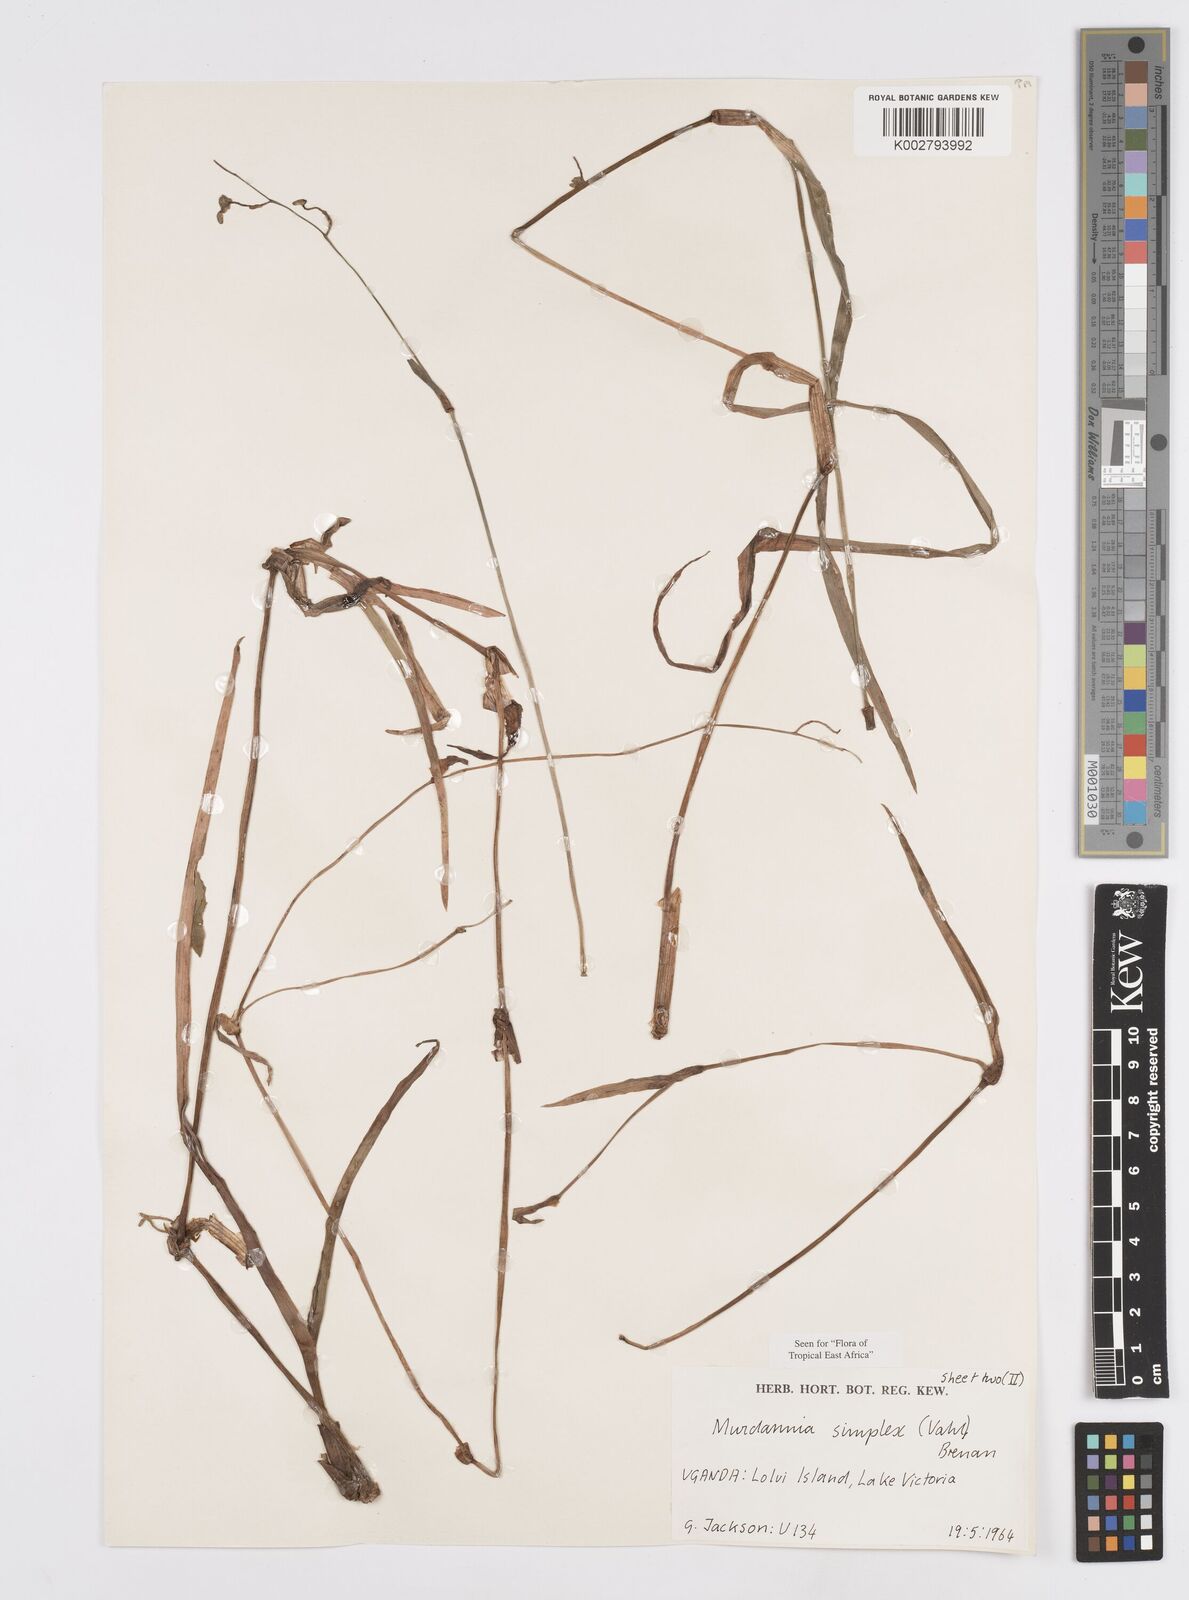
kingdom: Plantae
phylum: Tracheophyta
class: Liliopsida
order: Commelinales
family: Commelinaceae
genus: Murdannia
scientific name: Murdannia simplex
